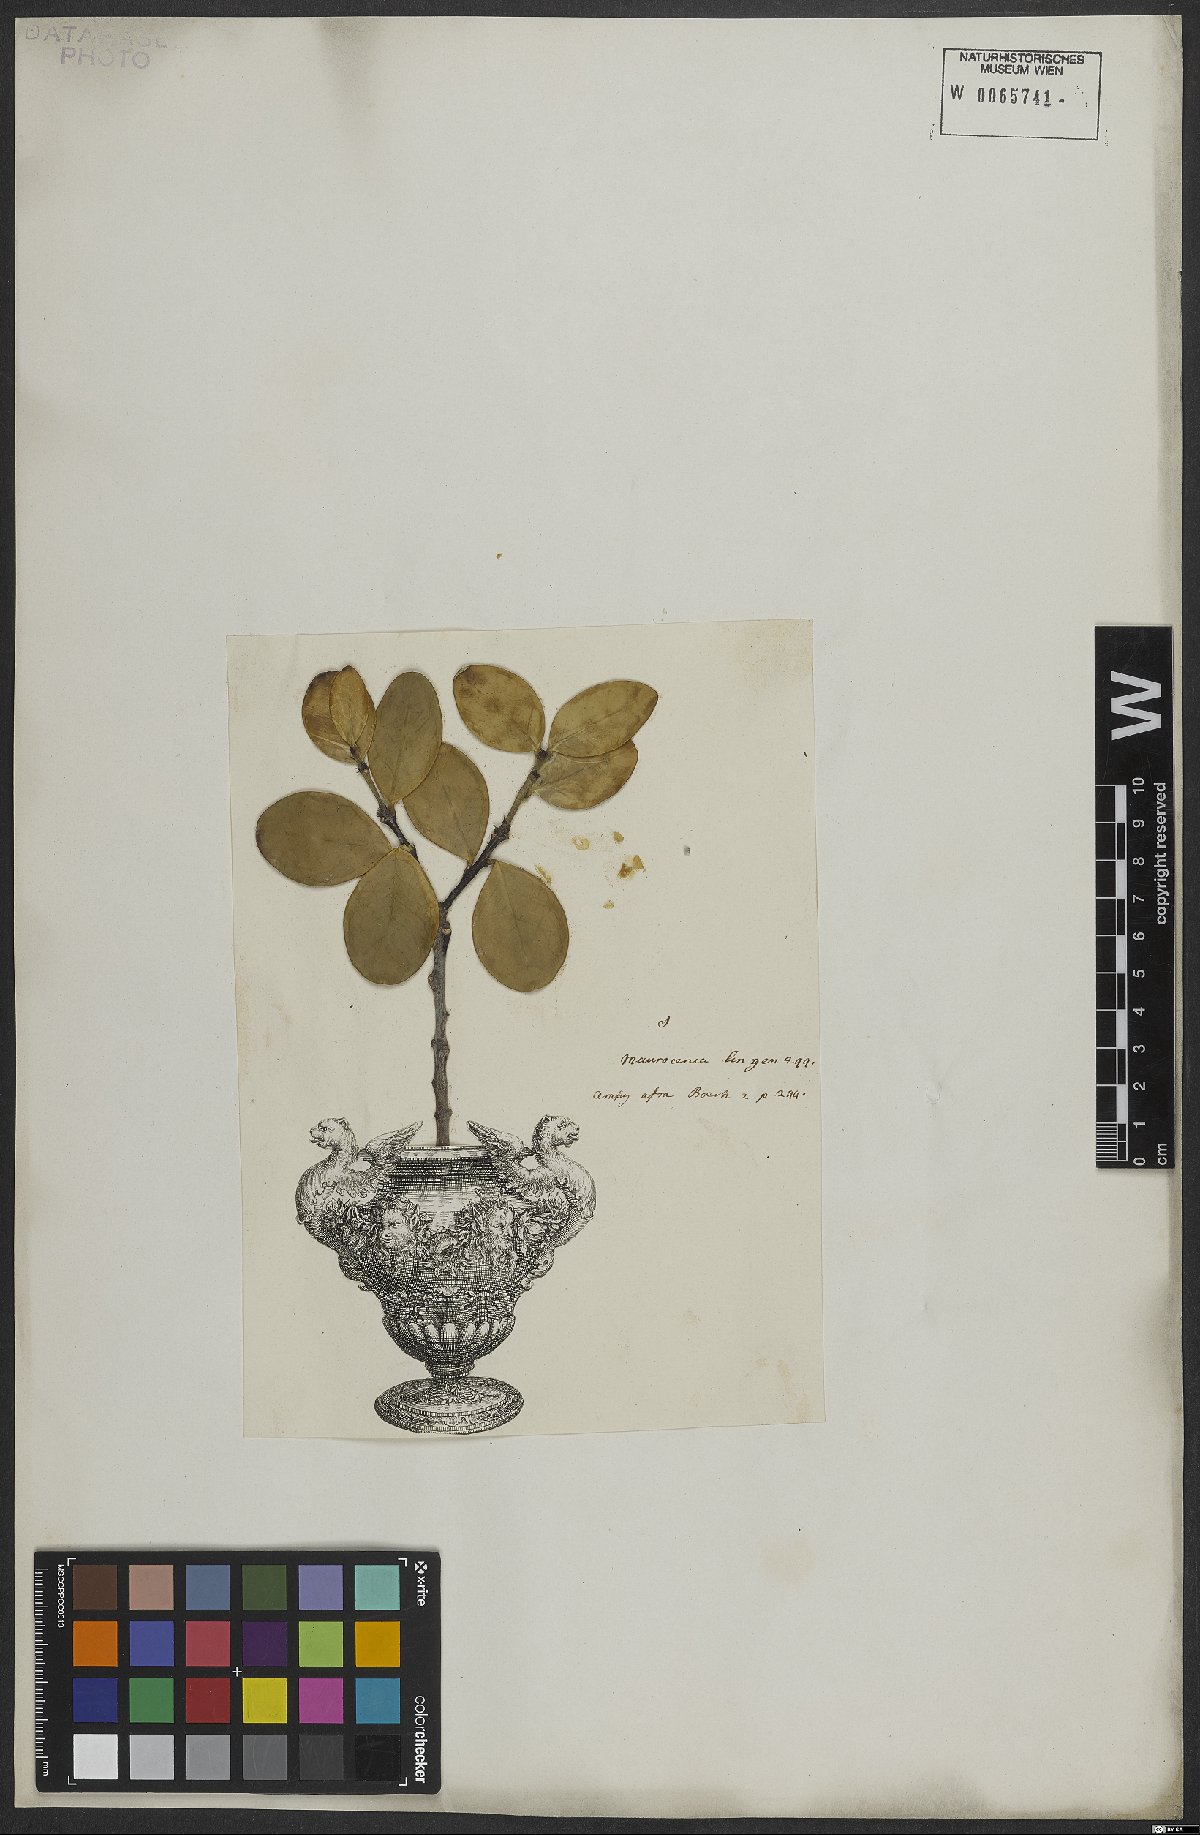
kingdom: Plantae
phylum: Tracheophyta
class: Magnoliopsida
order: Celastrales
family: Celastraceae
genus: Maurocenia
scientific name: Maurocenia
